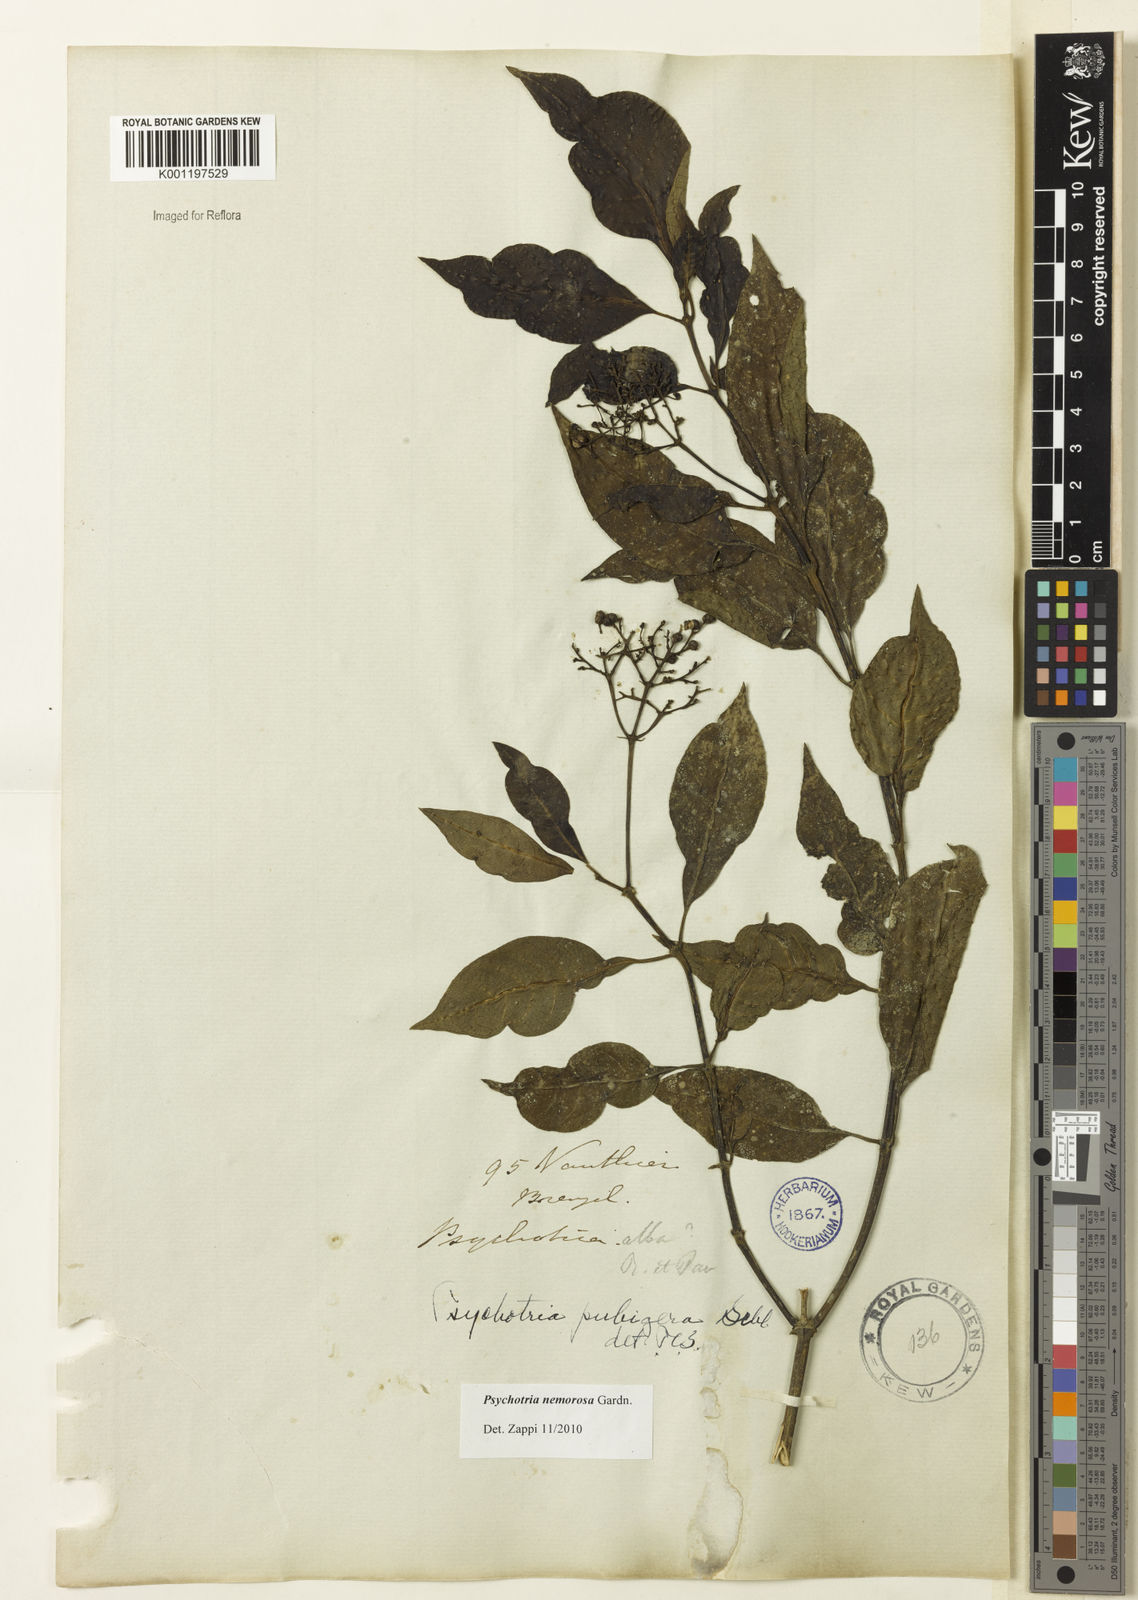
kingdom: Plantae
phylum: Tracheophyta
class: Magnoliopsida
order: Gentianales
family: Rubiaceae
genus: Psychotria
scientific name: Psychotria nemorosa
